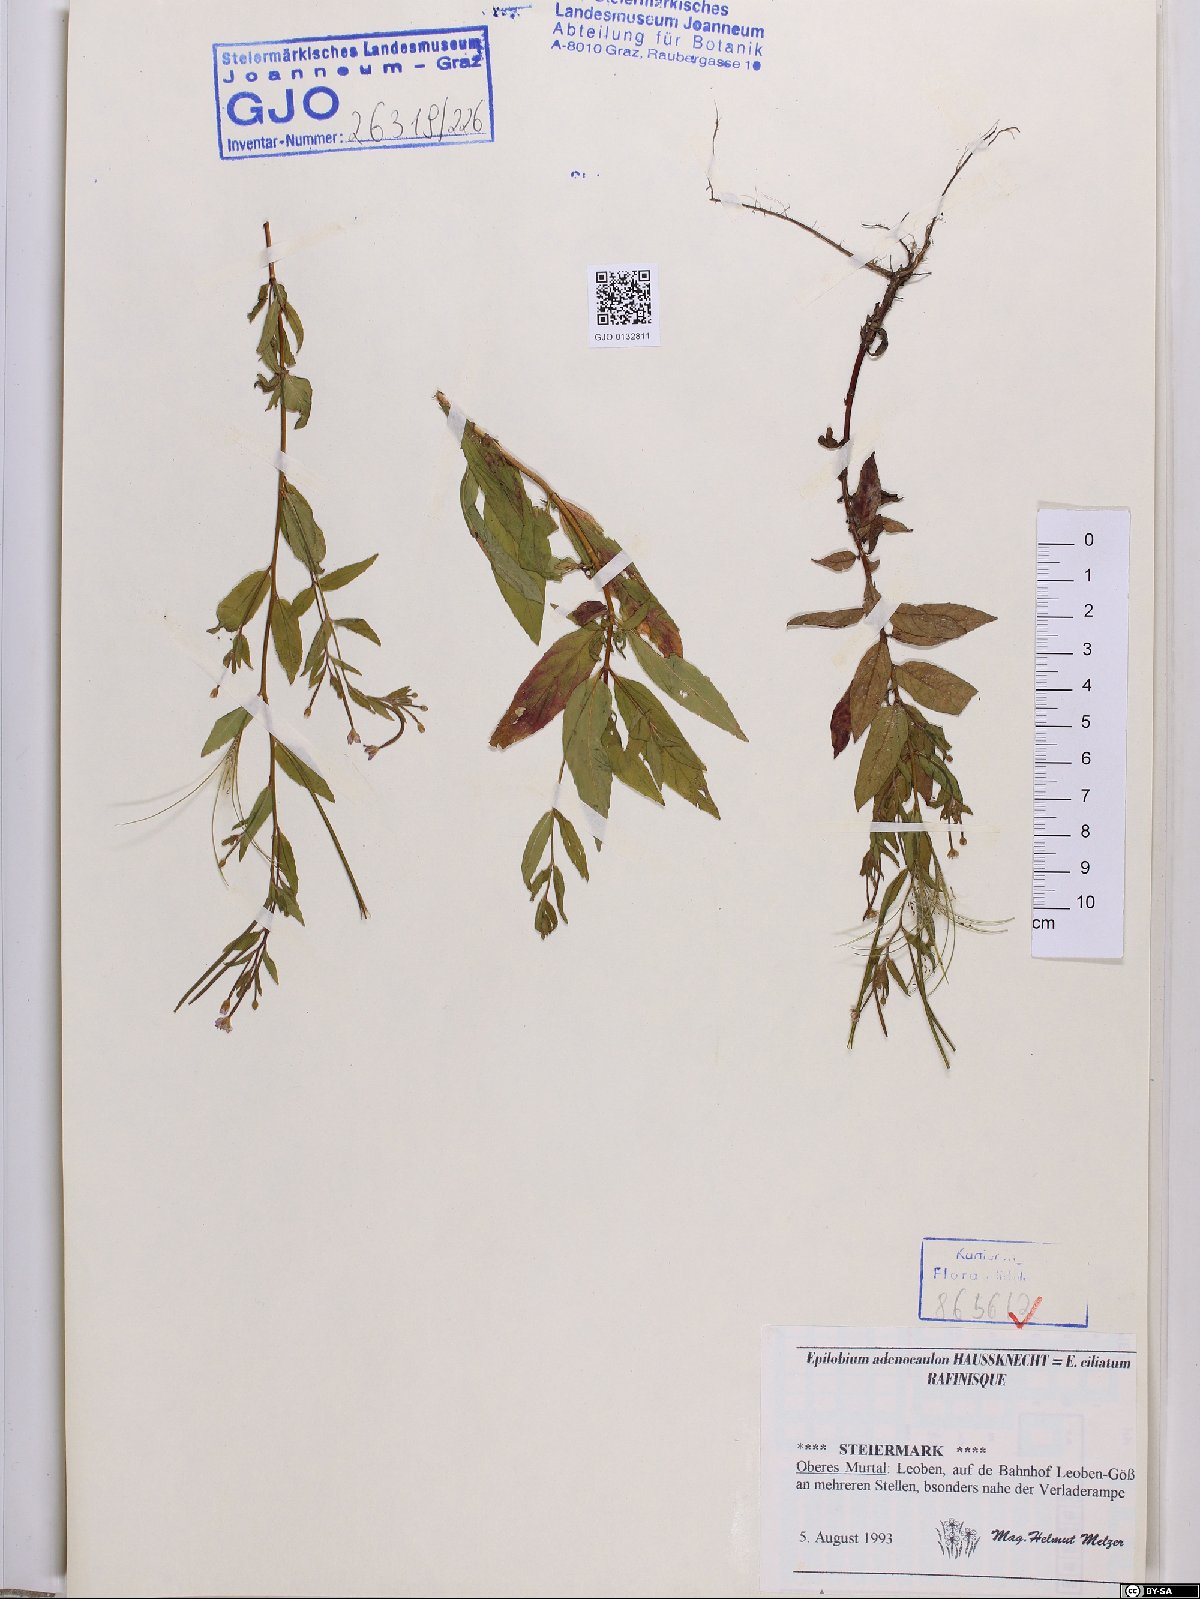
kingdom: Plantae
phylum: Tracheophyta
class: Magnoliopsida
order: Myrtales
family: Onagraceae
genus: Epilobium
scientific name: Epilobium ciliatum
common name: American willowherb
